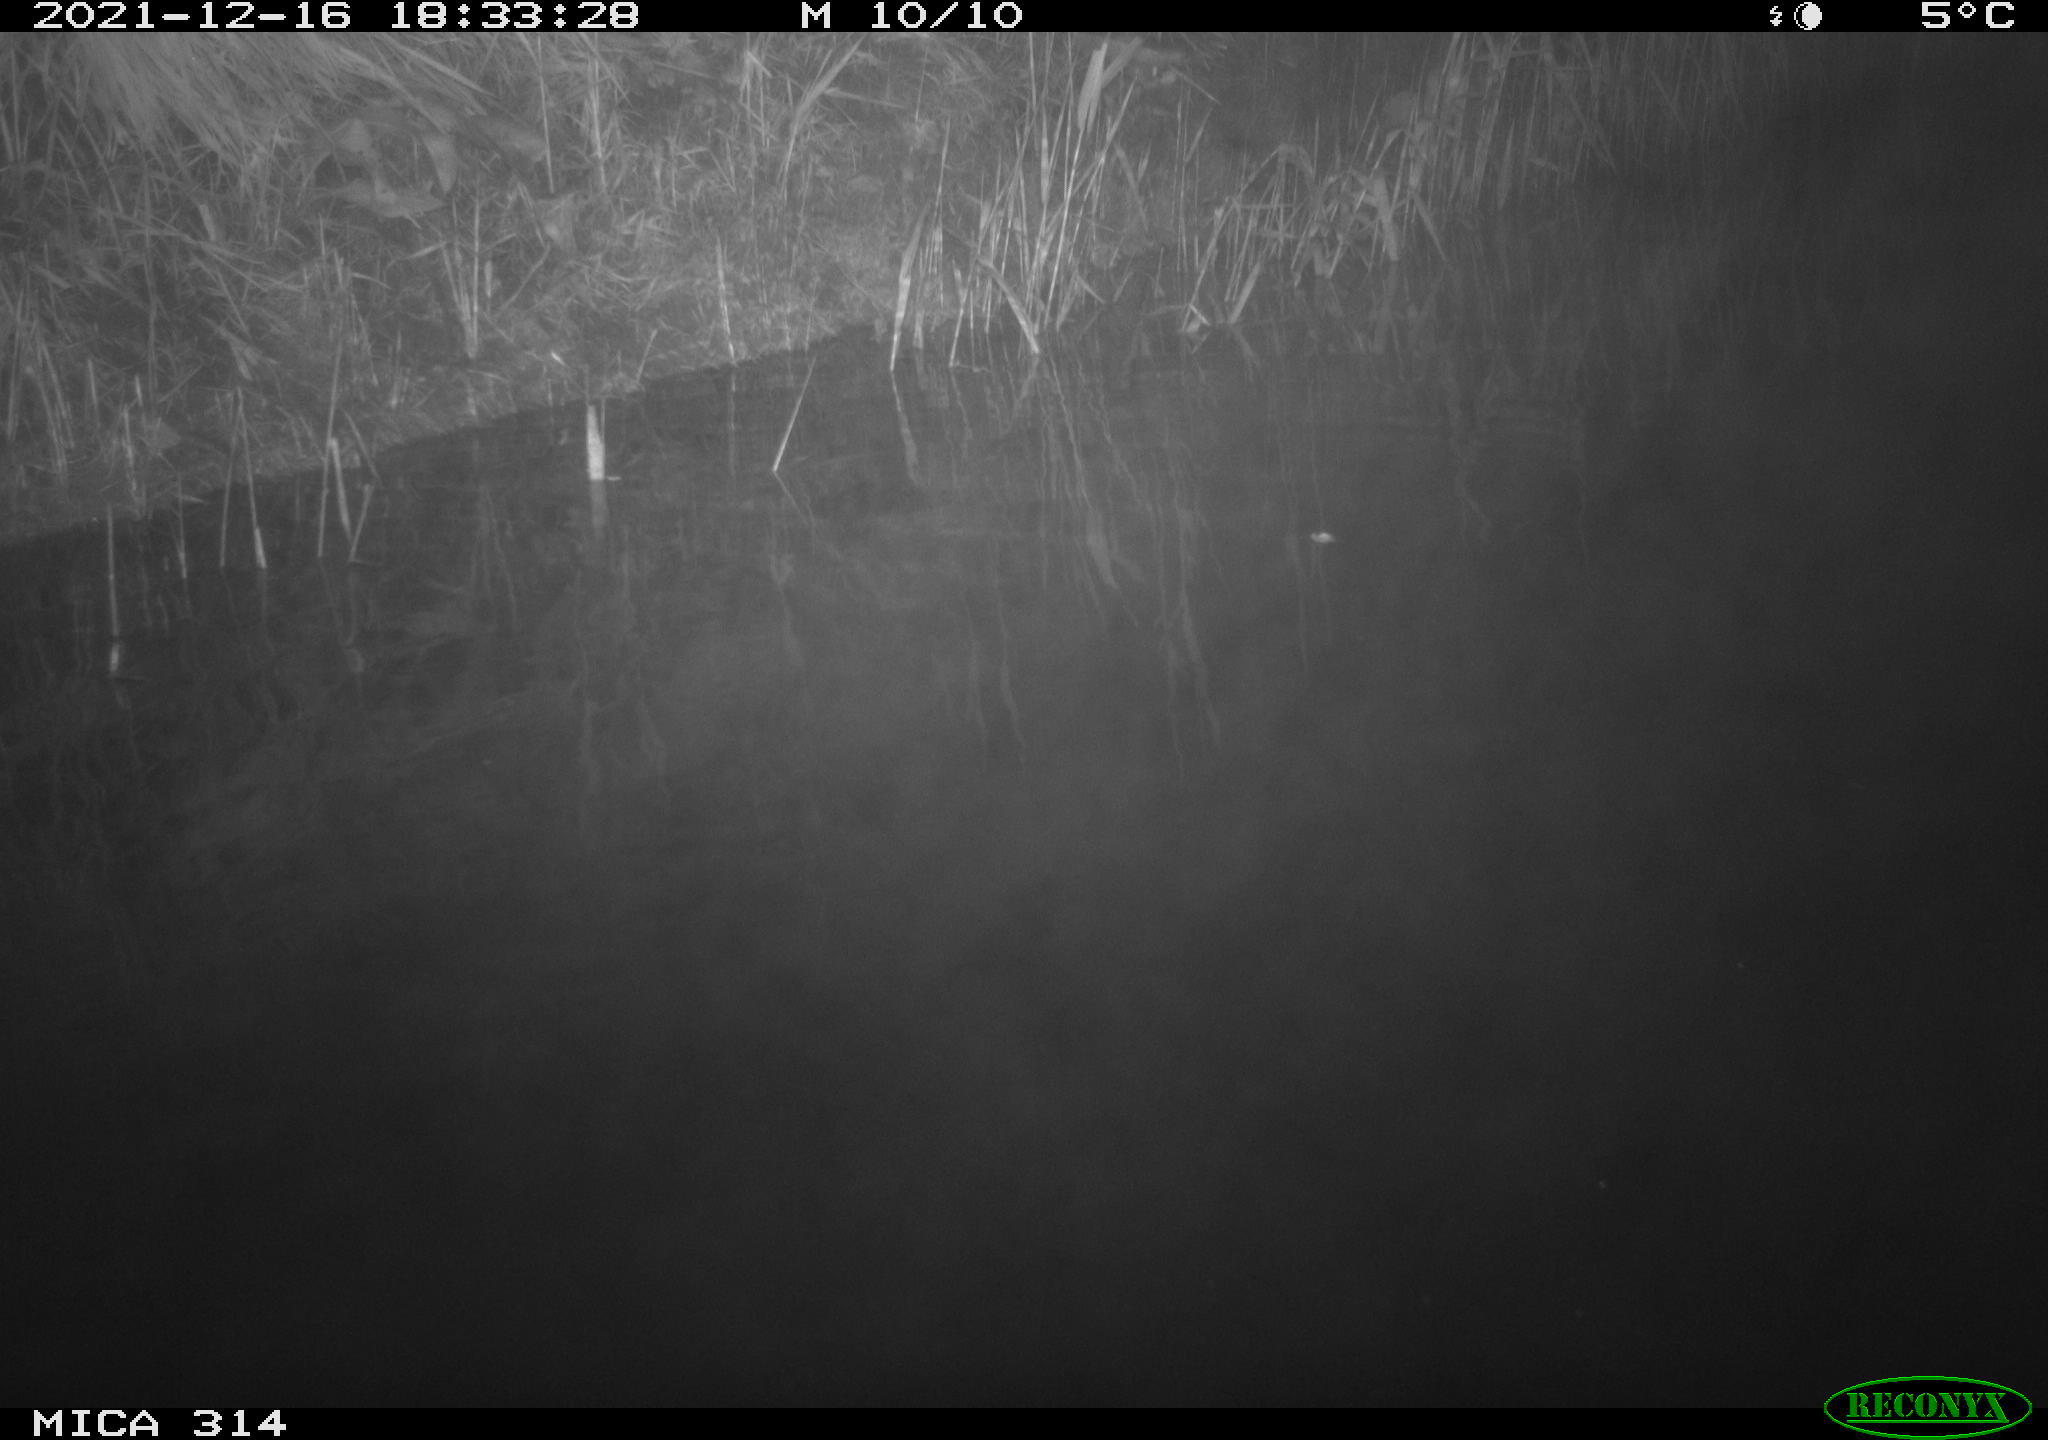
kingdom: Animalia
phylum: Chordata
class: Mammalia
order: Rodentia
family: Muridae
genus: Rattus
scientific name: Rattus norvegicus
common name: Brown rat
